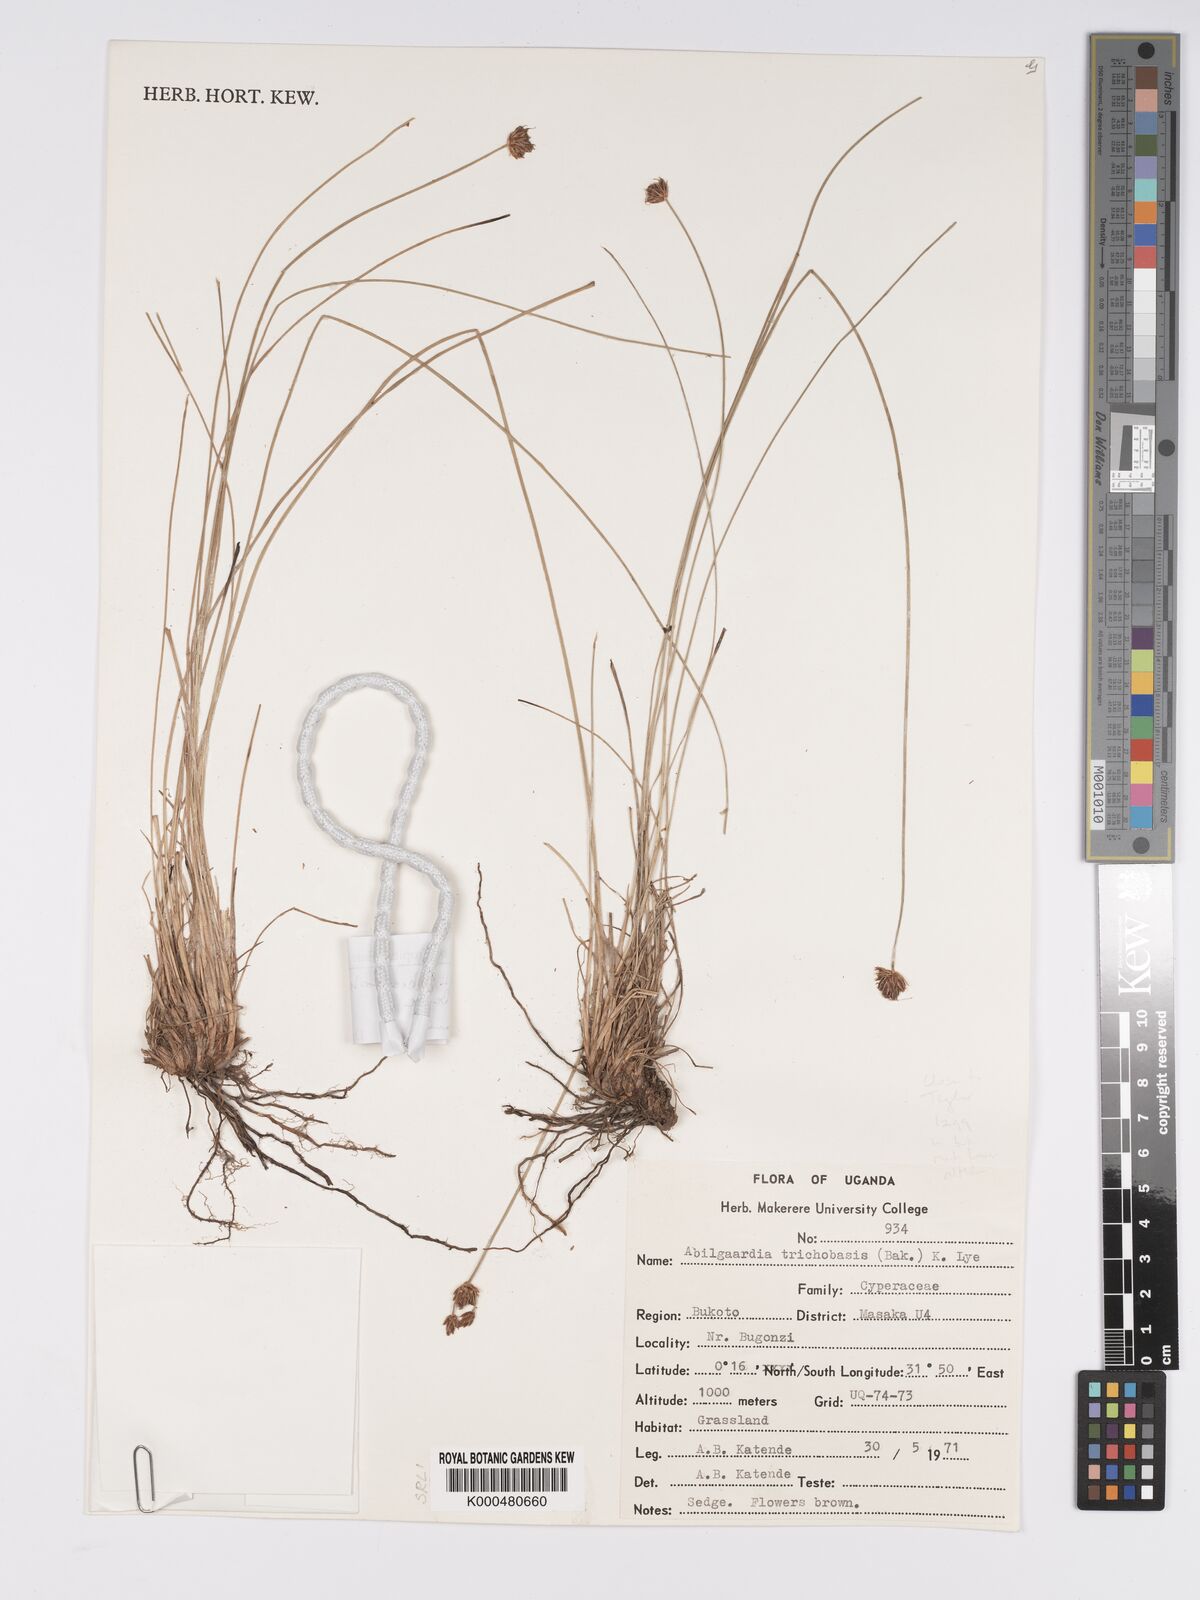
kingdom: Plantae
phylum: Tracheophyta
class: Liliopsida
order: Poales
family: Cyperaceae
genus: Bulbostylis
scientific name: Bulbostylis boeckeleriana
